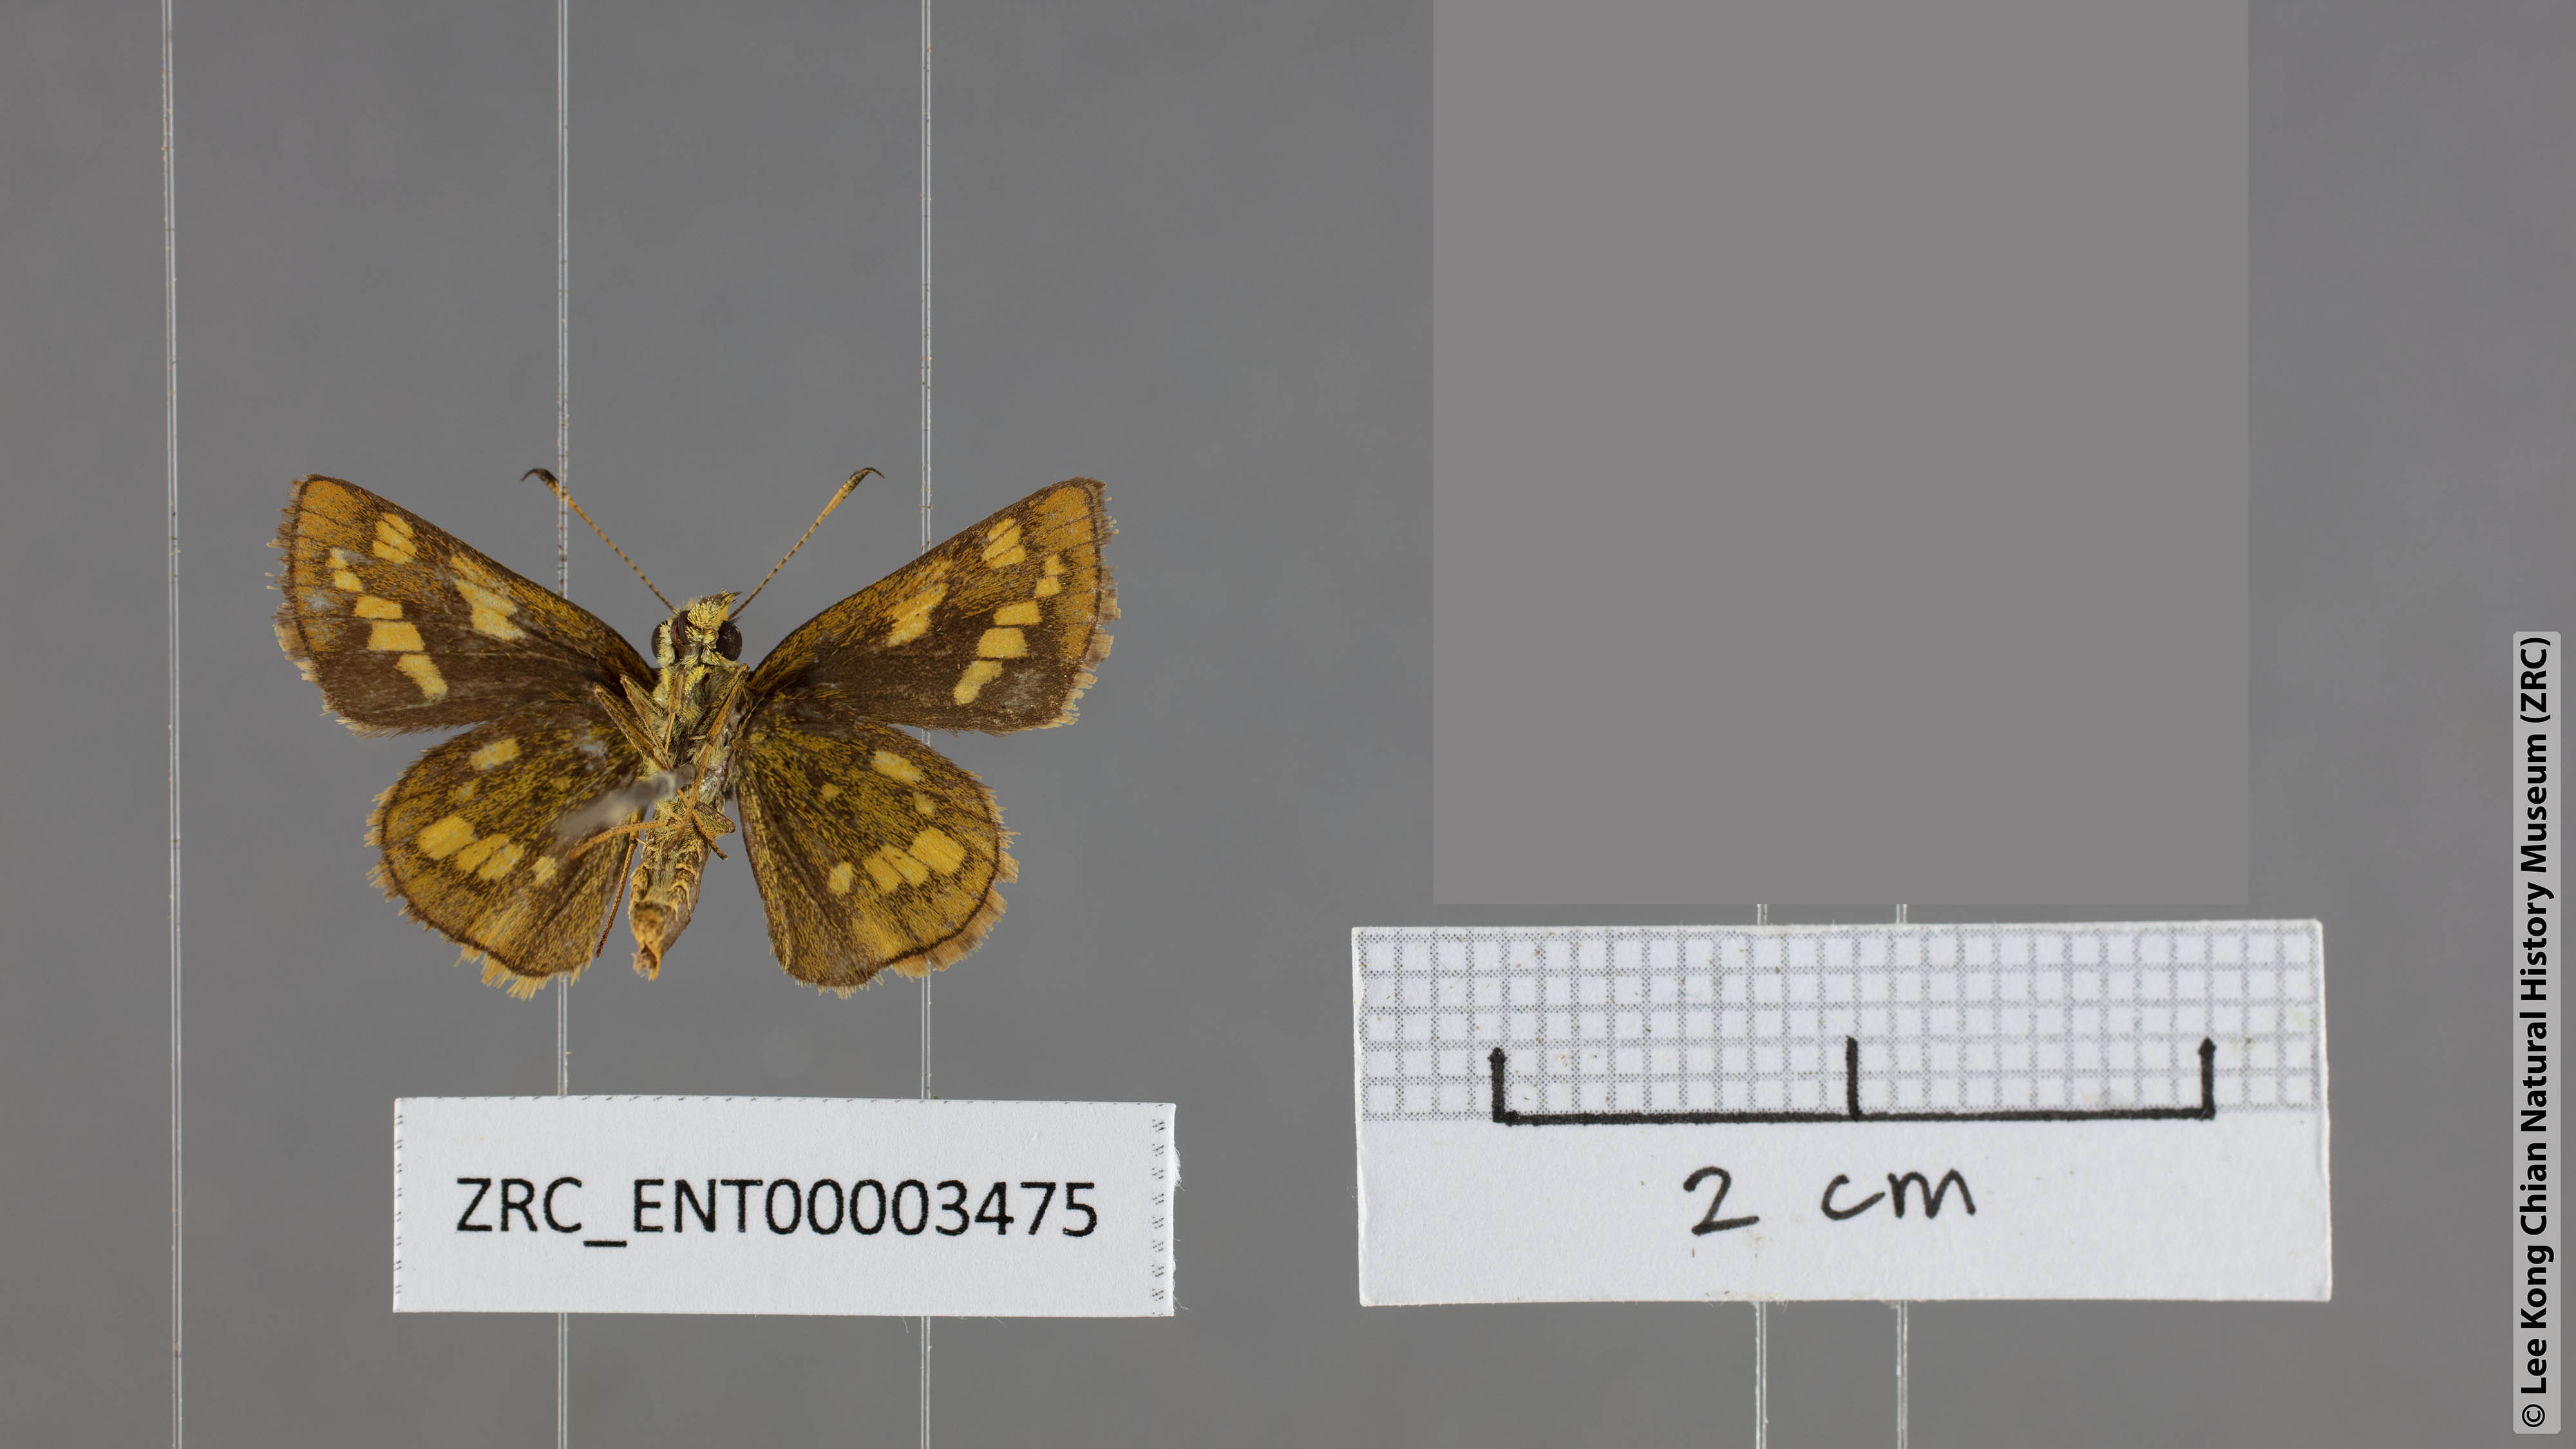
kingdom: Animalia
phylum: Arthropoda
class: Insecta
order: Lepidoptera
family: Hesperiidae
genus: Potanthus
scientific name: Potanthus mingo
